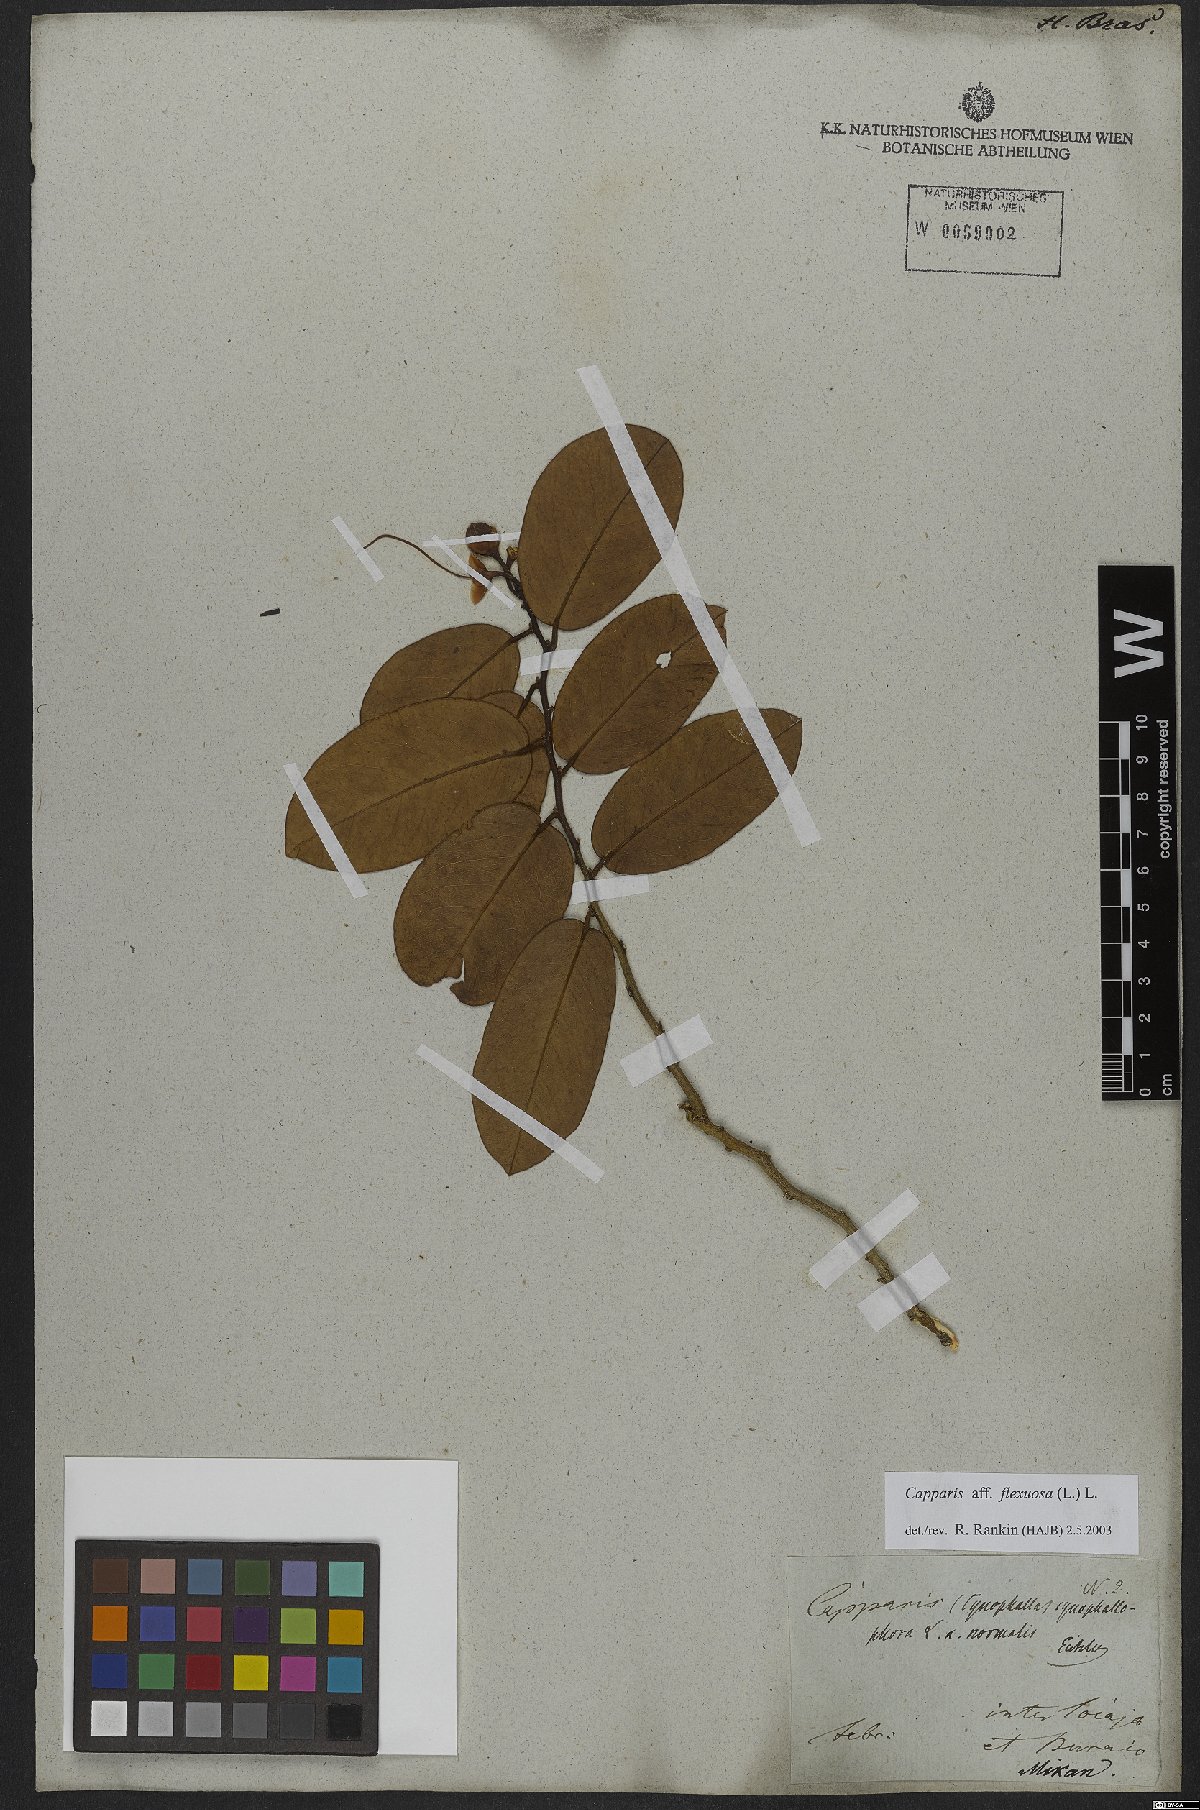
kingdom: Plantae
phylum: Tracheophyta
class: Magnoliopsida
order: Brassicales
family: Capparaceae
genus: Cynophalla
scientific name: Cynophalla flexuosa
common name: Capertree
